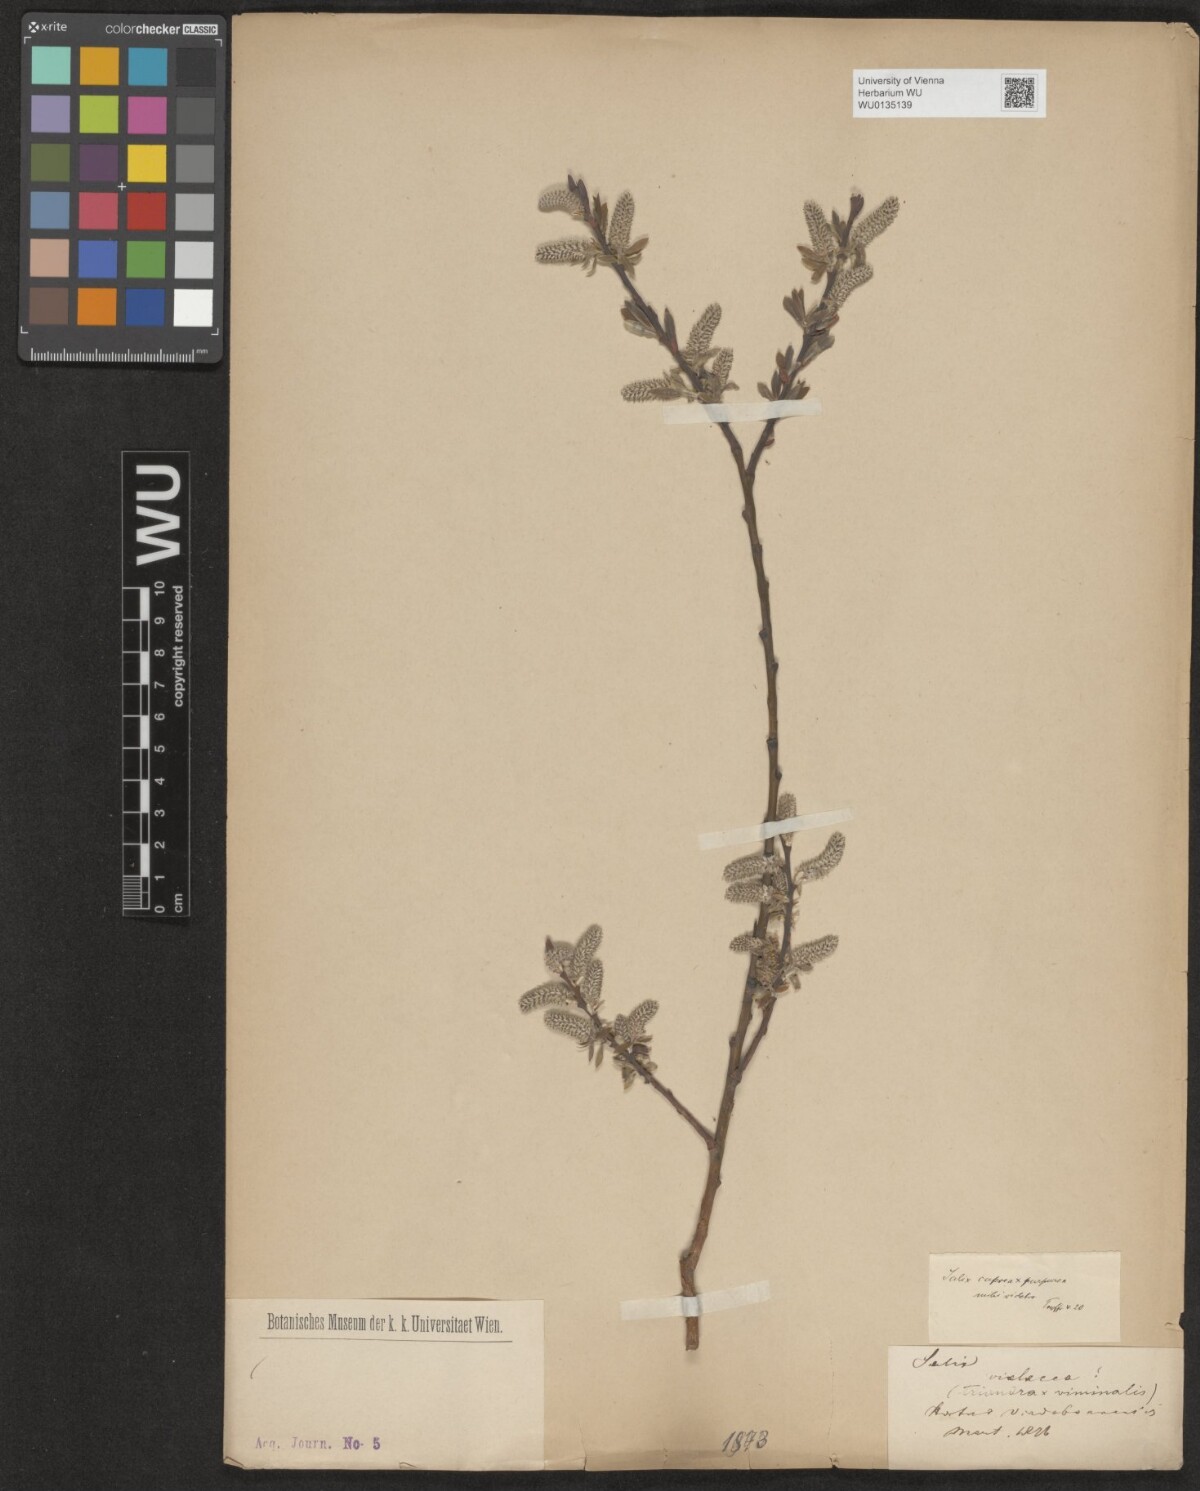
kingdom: Plantae
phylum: Tracheophyta
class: Magnoliopsida
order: Malpighiales
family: Salicaceae
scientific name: Salicaceae
